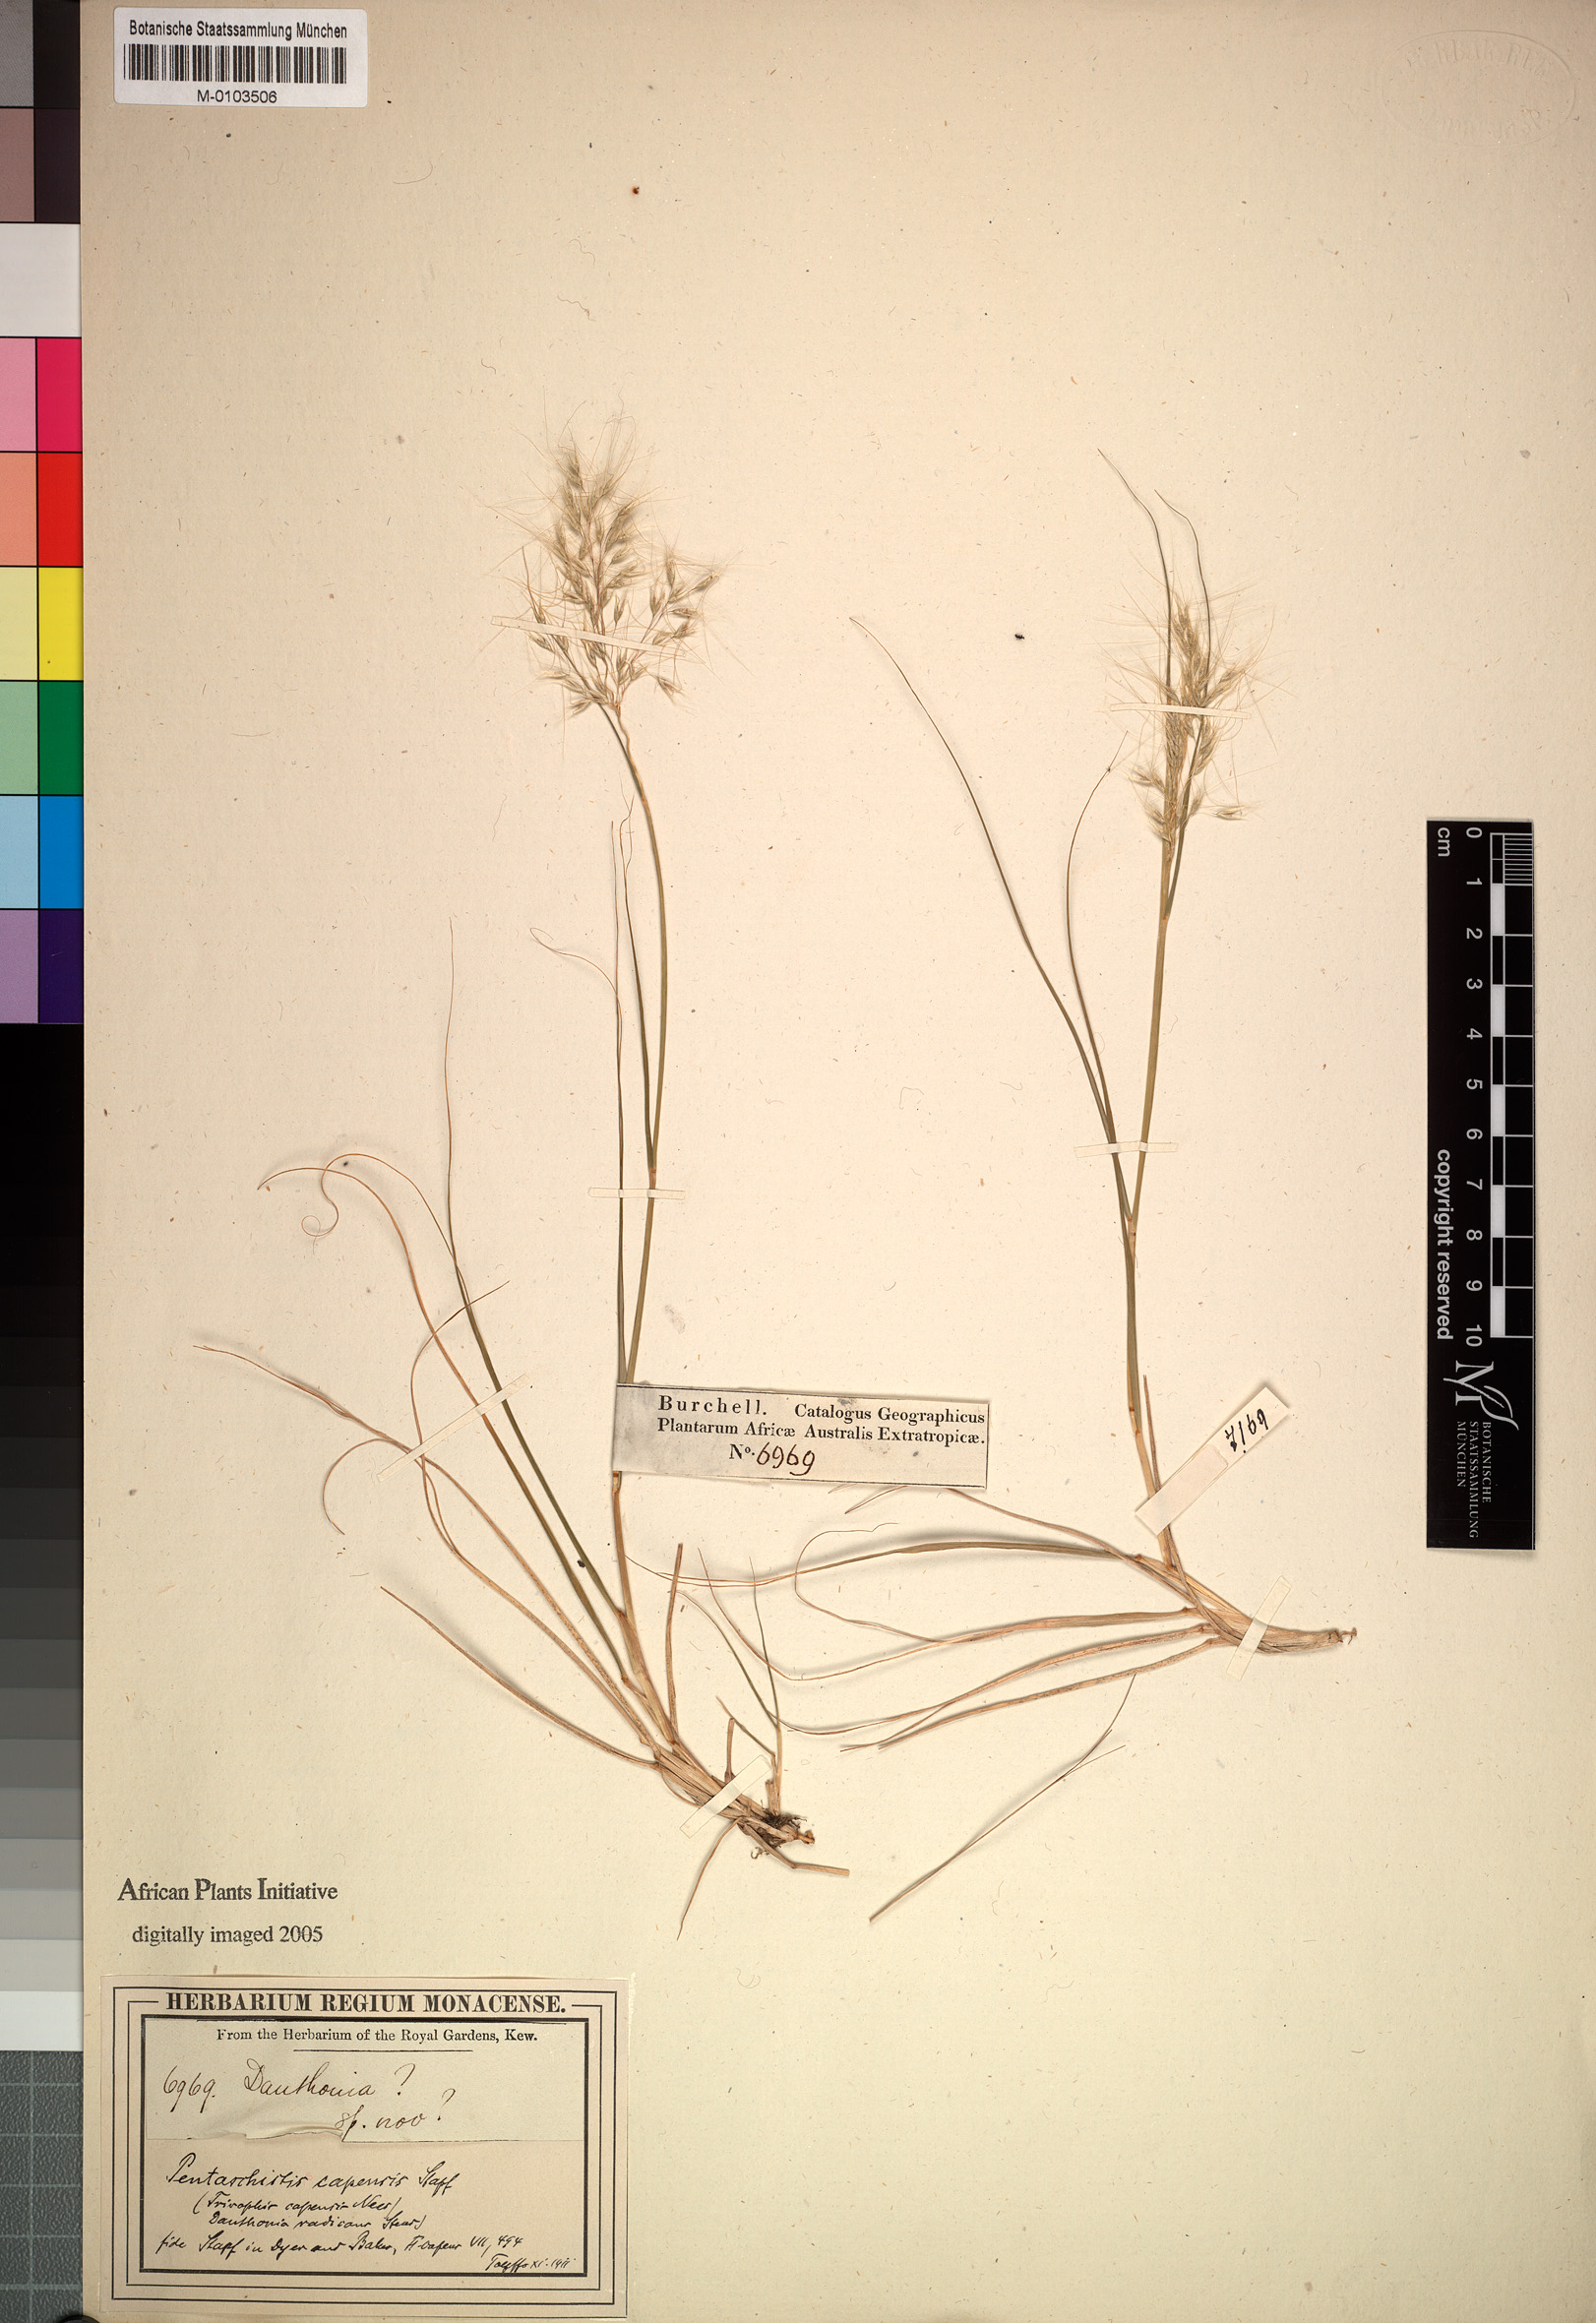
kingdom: Plantae
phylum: Tracheophyta
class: Liliopsida
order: Poales
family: Poaceae
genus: Pentameris
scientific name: Pentameris capensis
